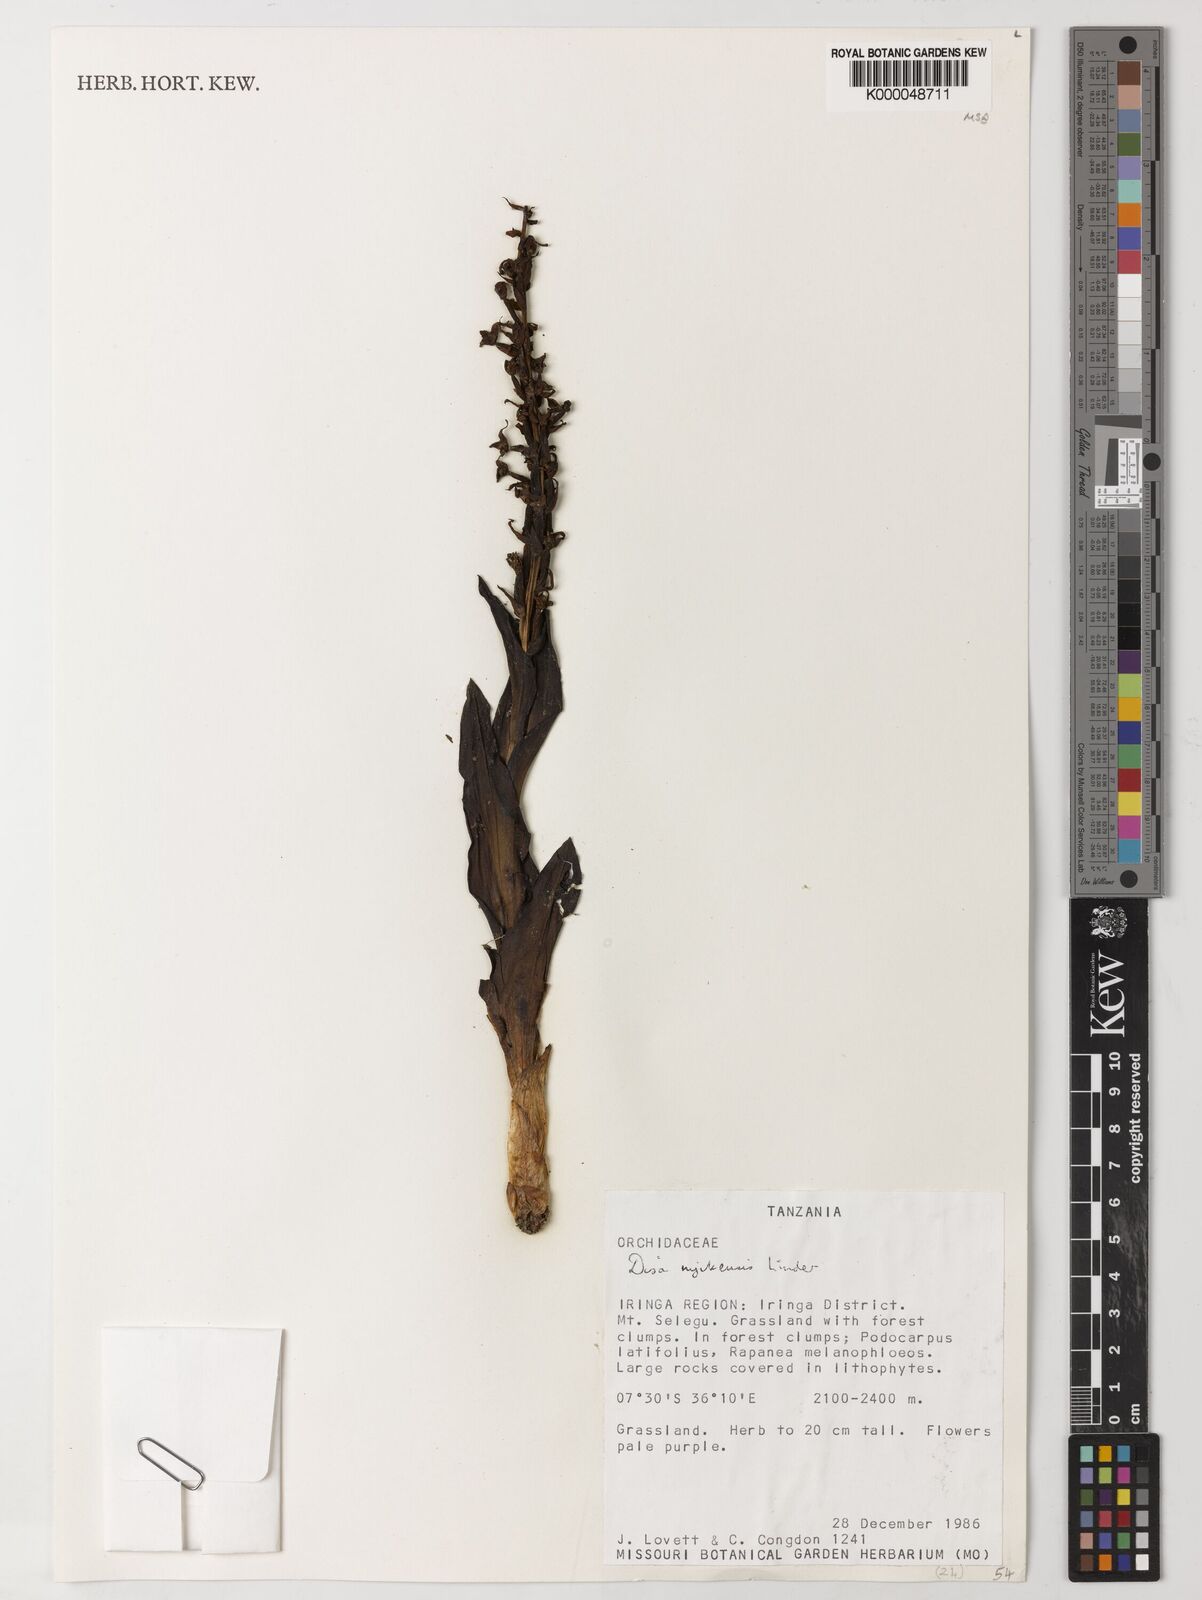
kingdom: Plantae
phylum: Tracheophyta
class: Liliopsida
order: Asparagales
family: Orchidaceae
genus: Disa
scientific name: Disa nyikensis
